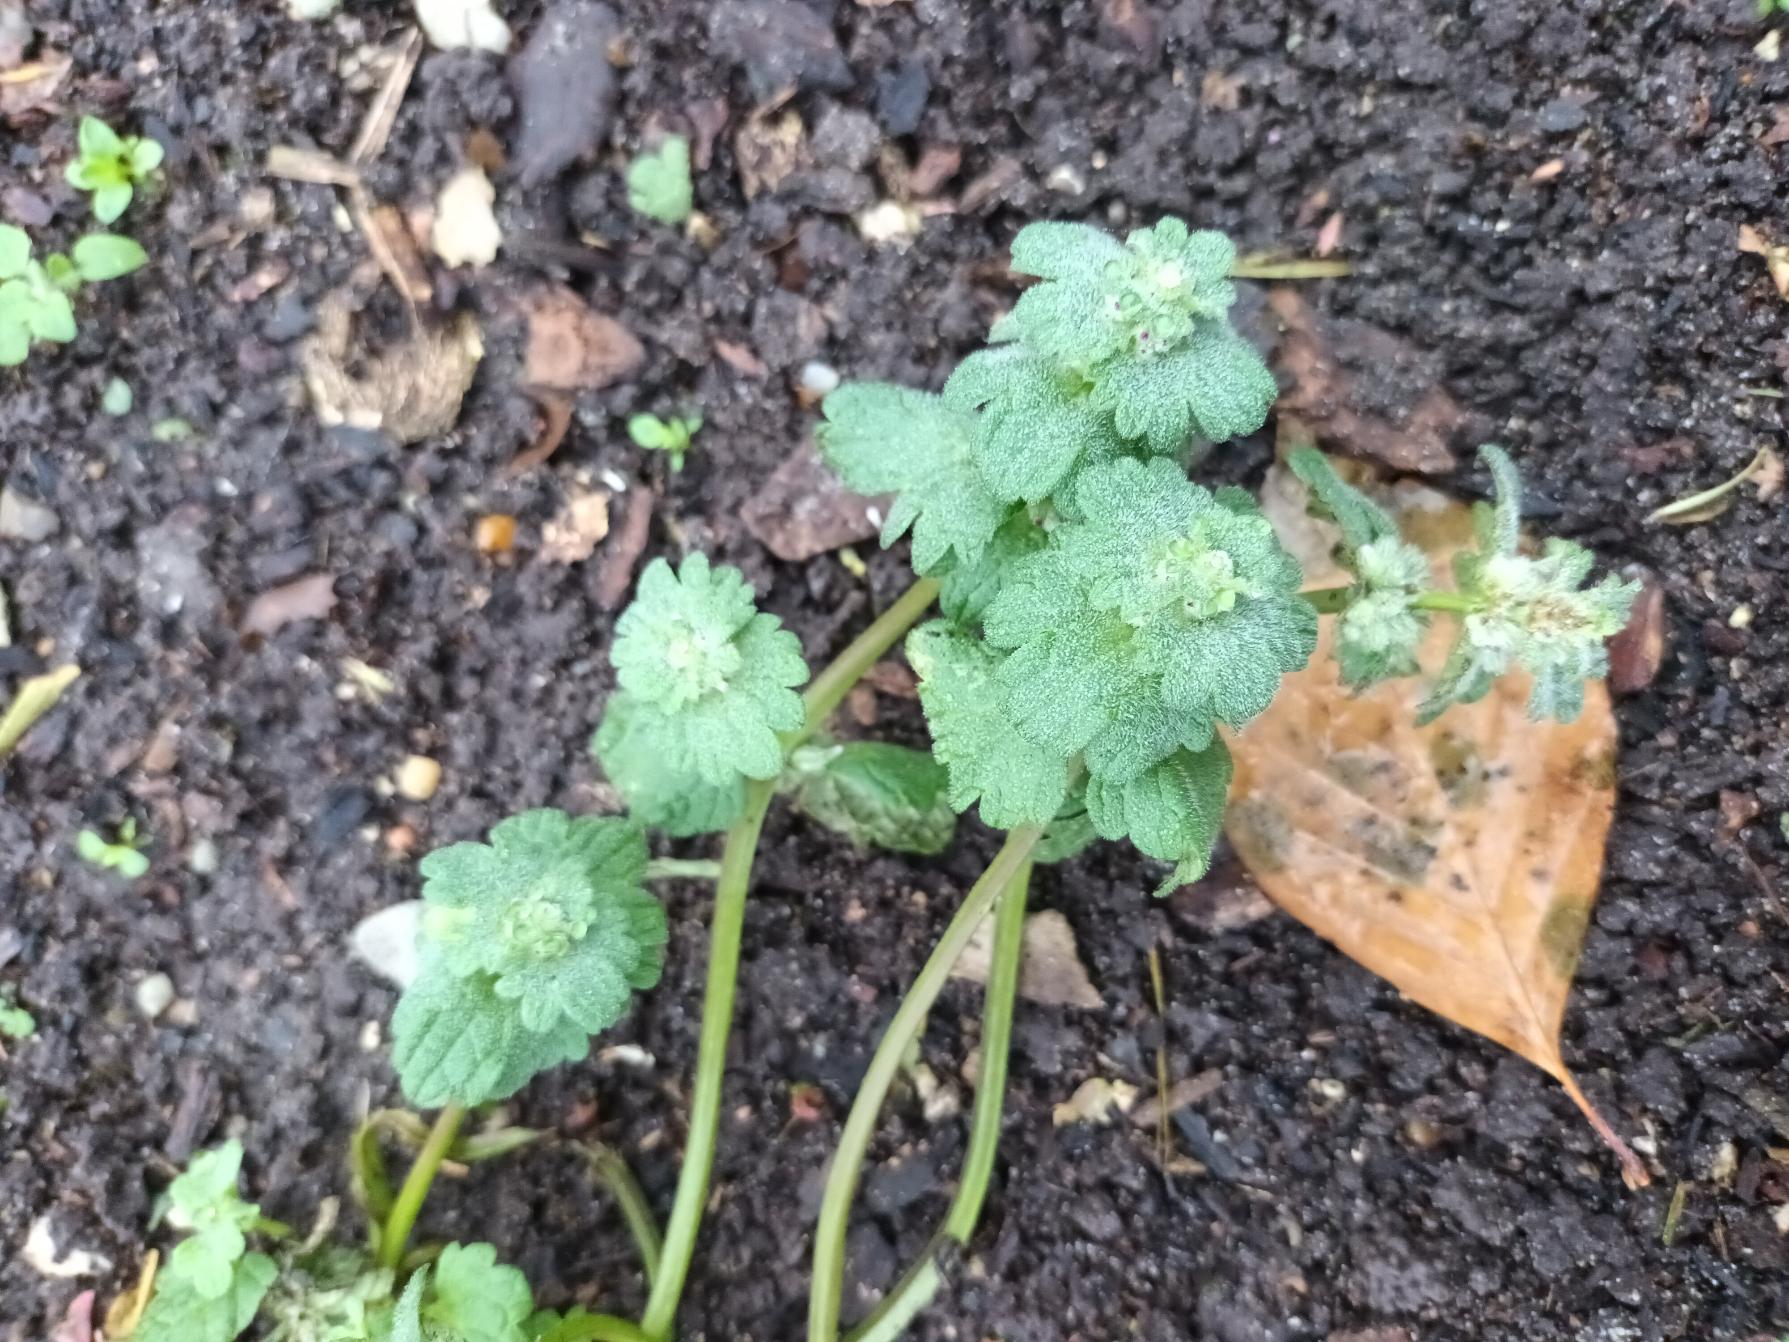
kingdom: Plantae
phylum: Tracheophyta
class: Magnoliopsida
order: Lamiales
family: Lamiaceae
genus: Lamium
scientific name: Lamium amplexicaule
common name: Liden tvetand
